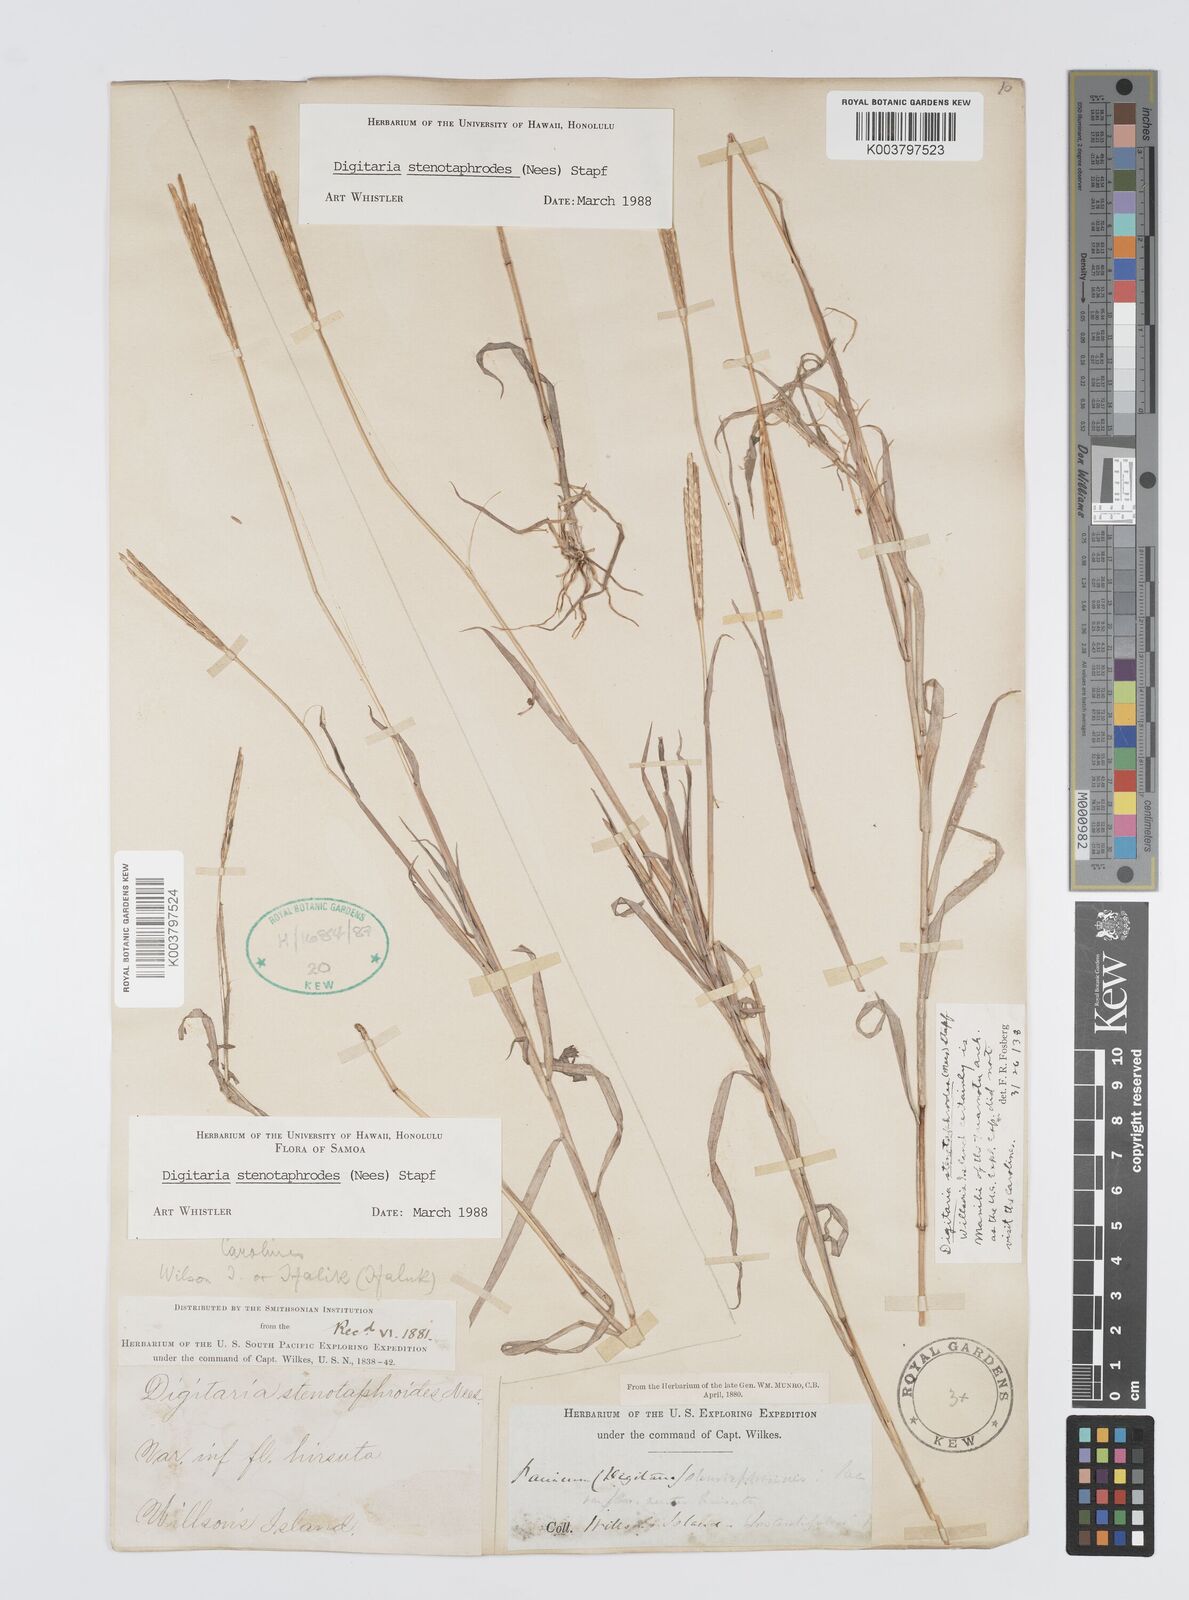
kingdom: Plantae
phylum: Tracheophyta
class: Liliopsida
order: Poales
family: Poaceae
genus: Digitaria
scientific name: Digitaria stenotaphrodes
